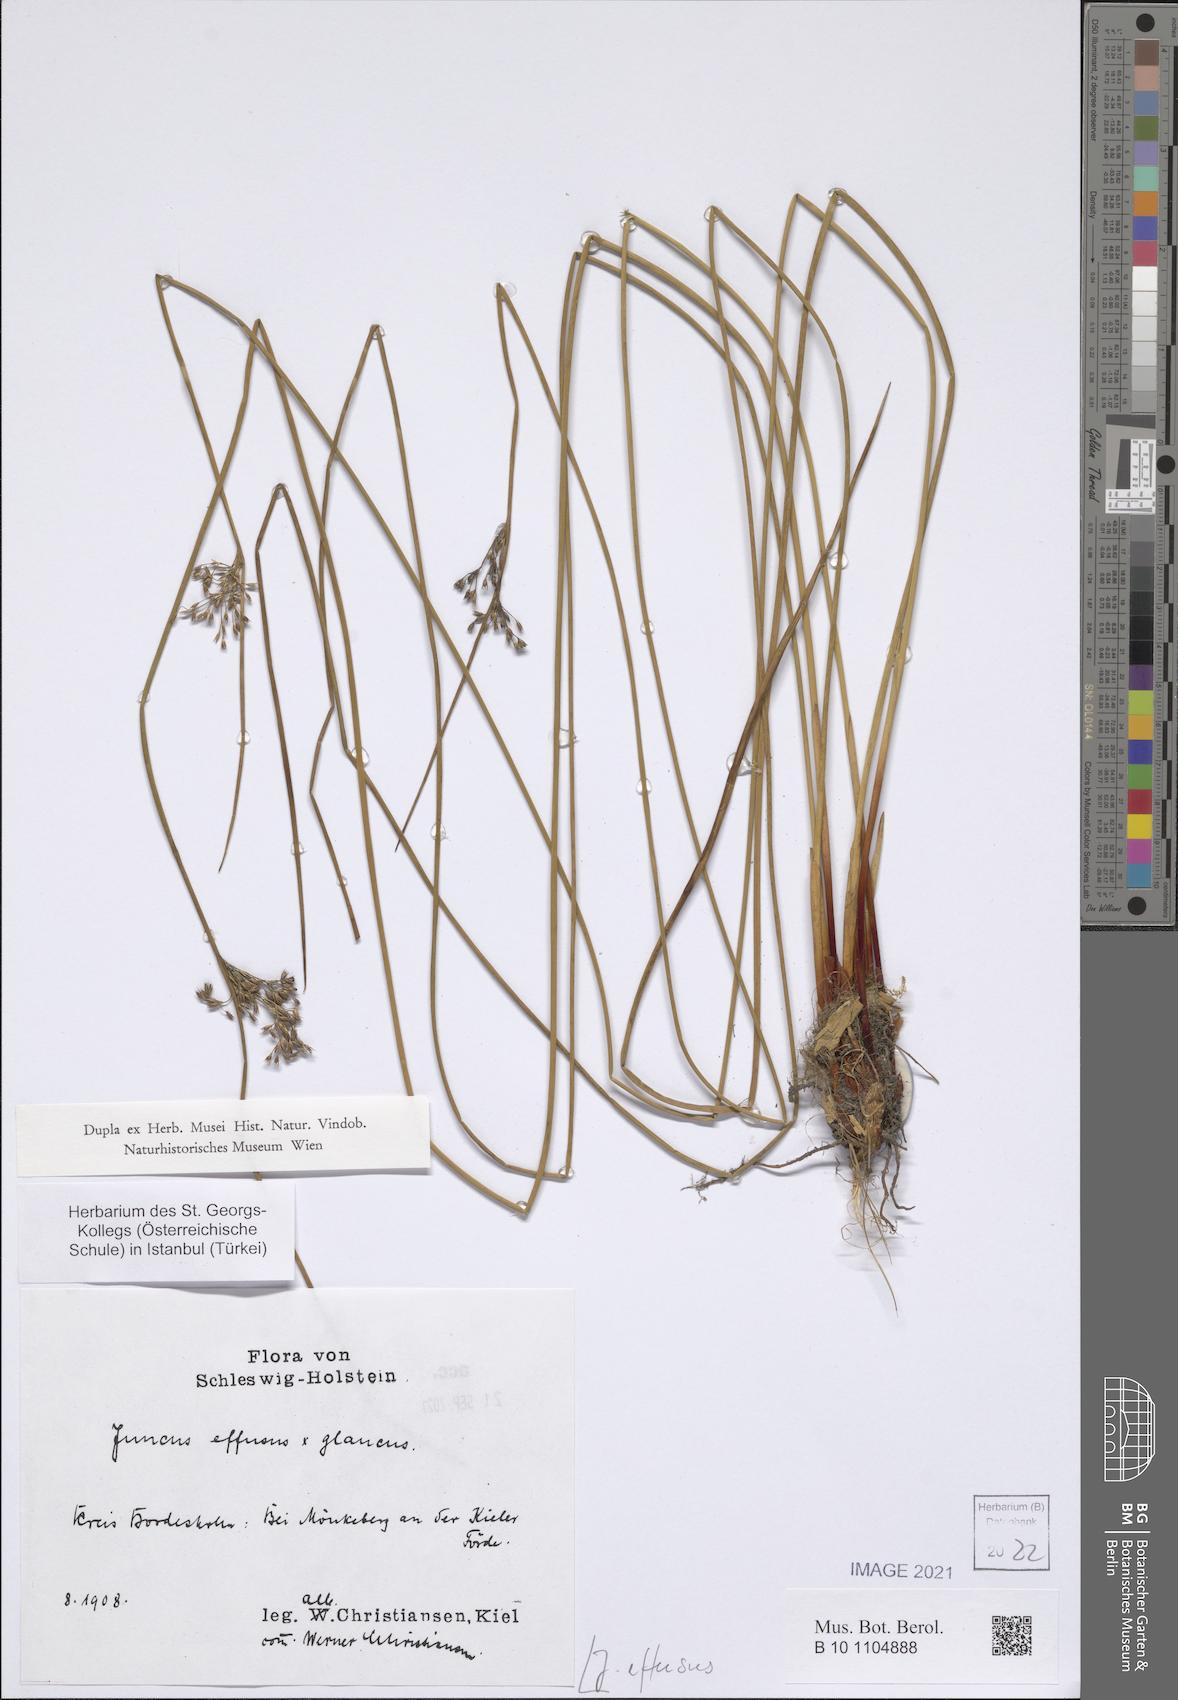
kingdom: Plantae
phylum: Tracheophyta
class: Liliopsida
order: Poales
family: Juncaceae
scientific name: Juncaceae
